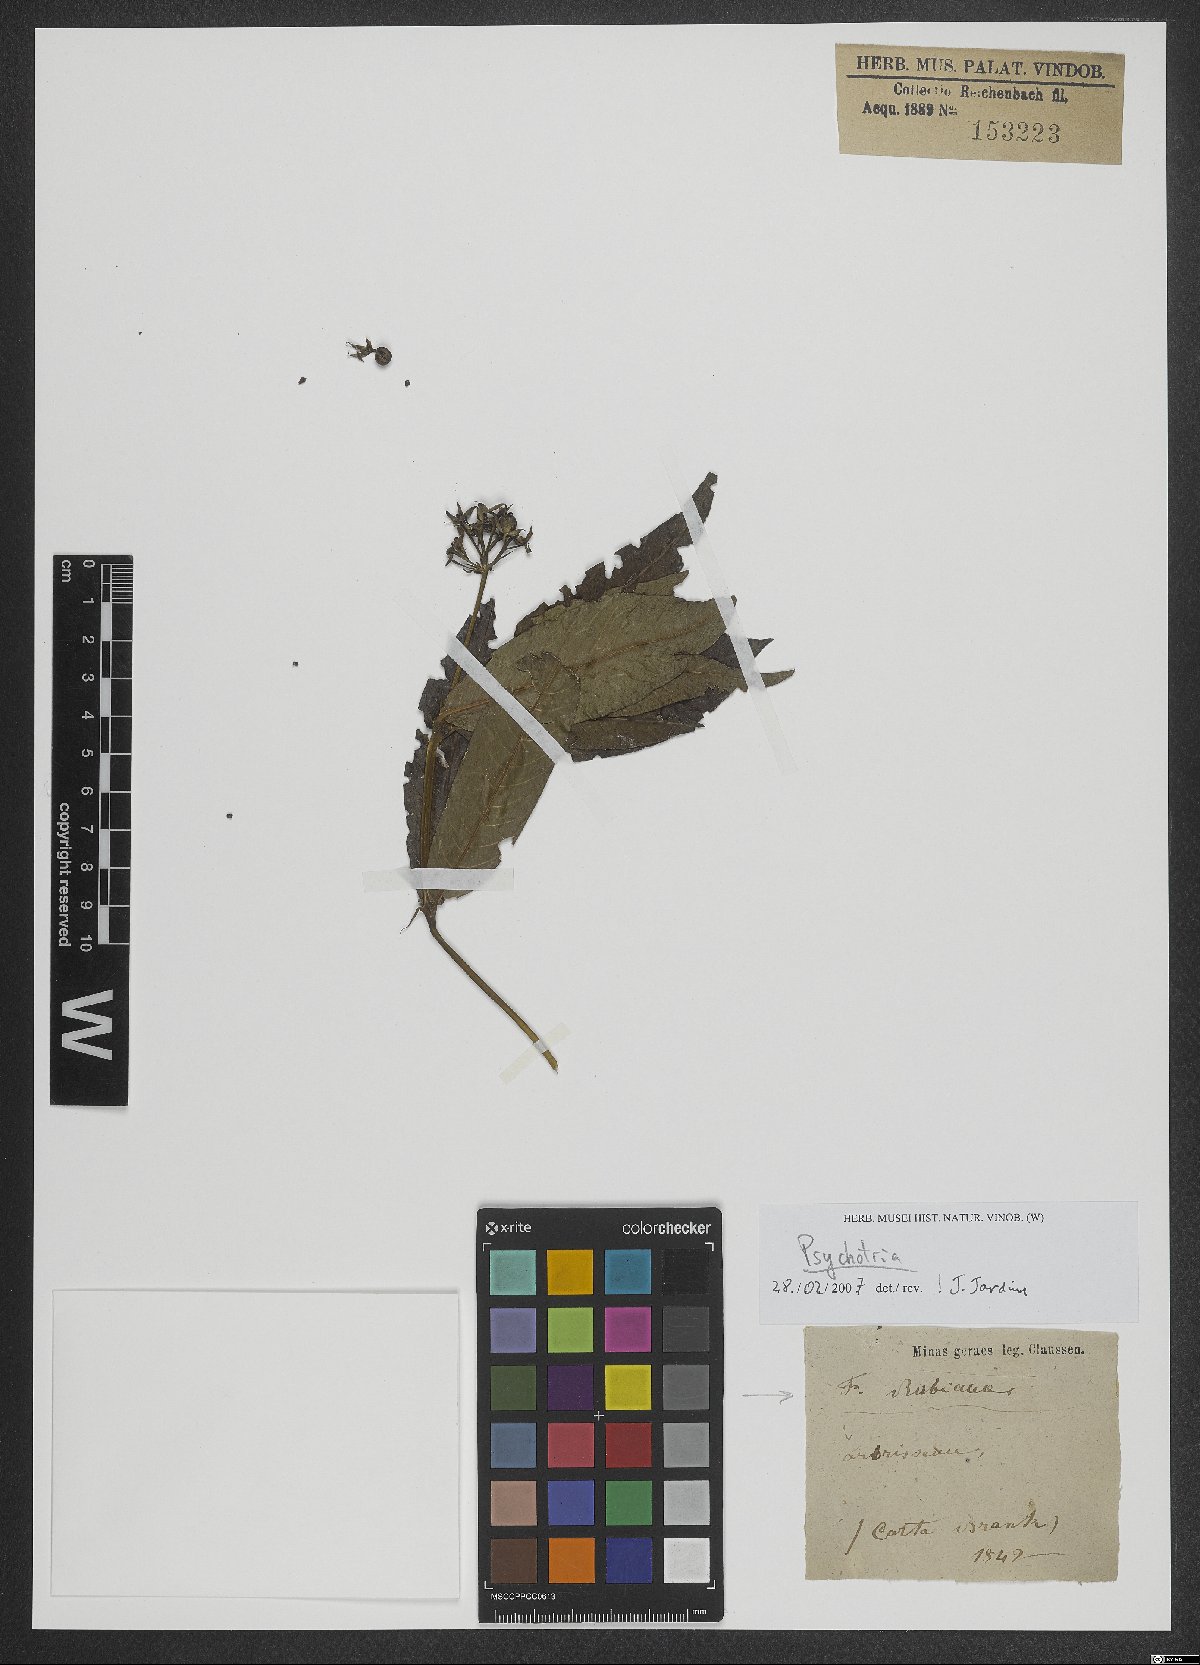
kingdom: Plantae
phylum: Tracheophyta
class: Magnoliopsida
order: Gentianales
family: Rubiaceae
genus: Palicourea
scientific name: Palicourea violacea
